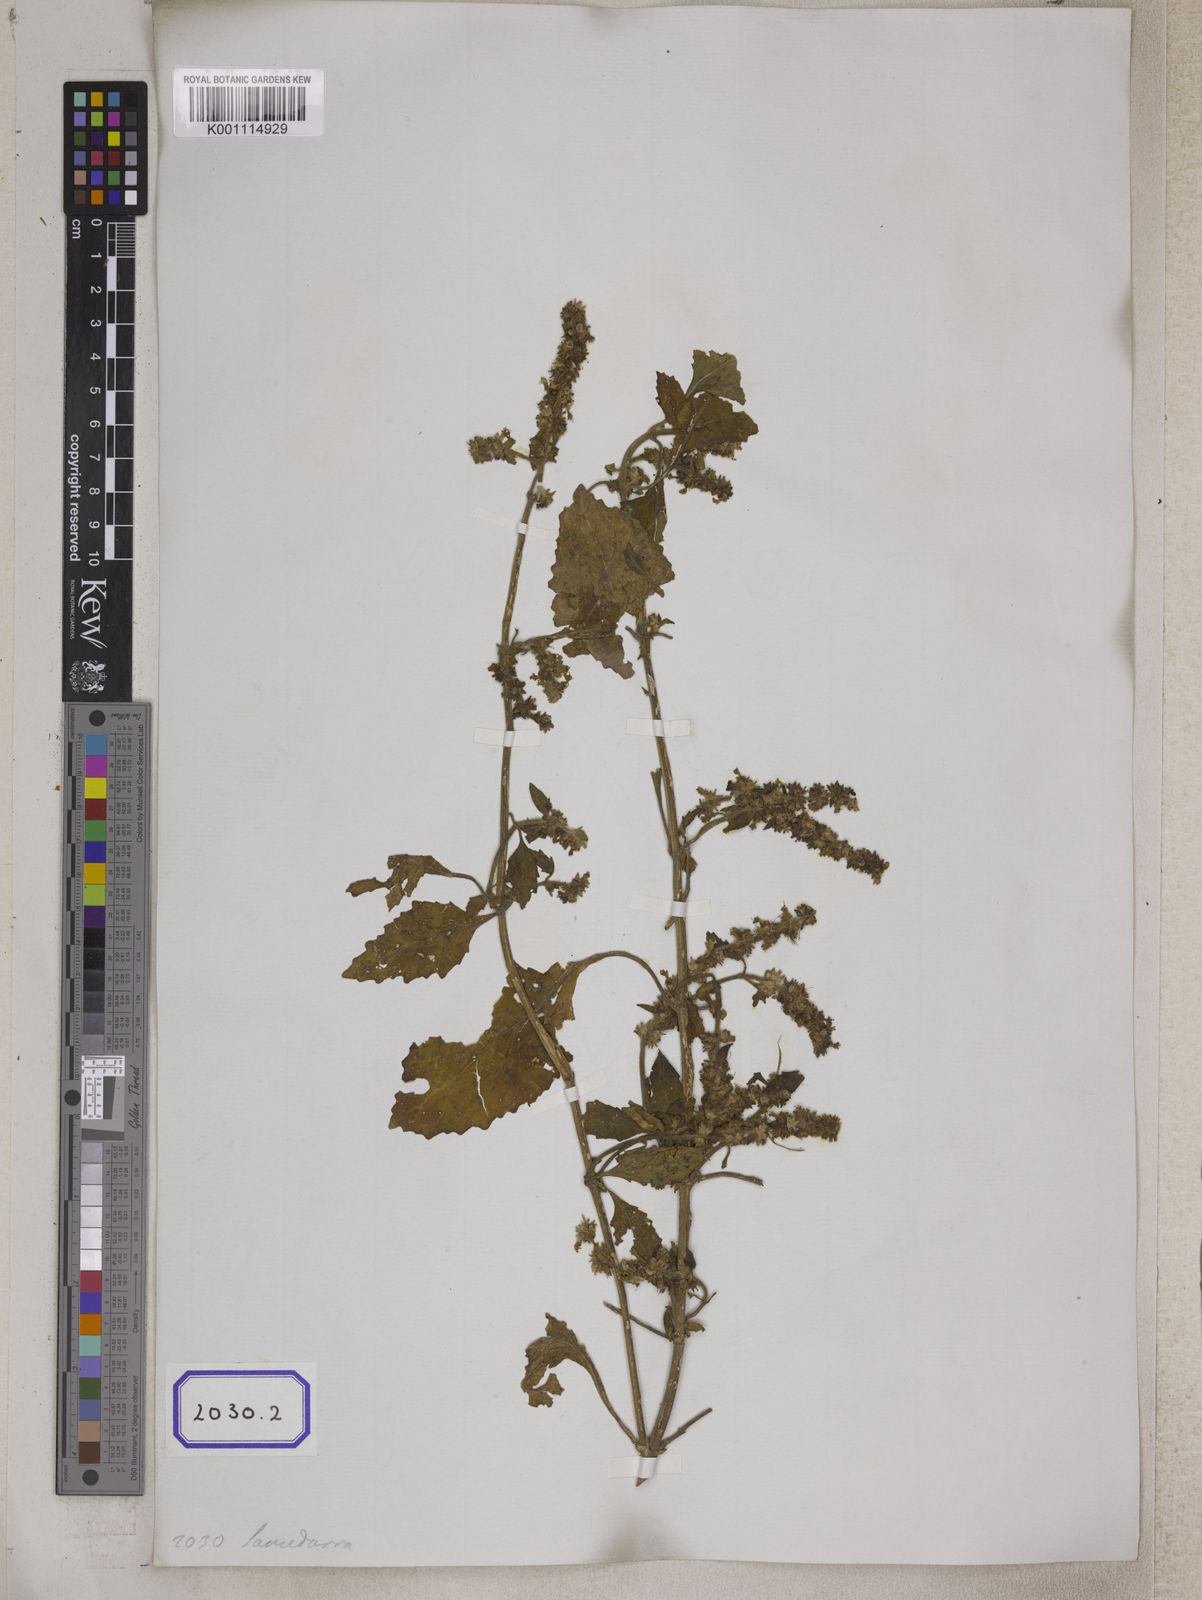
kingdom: Plantae
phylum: Tracheophyta
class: Magnoliopsida
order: Lamiales
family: Lamiaceae
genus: Ajuga
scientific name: Ajuga
